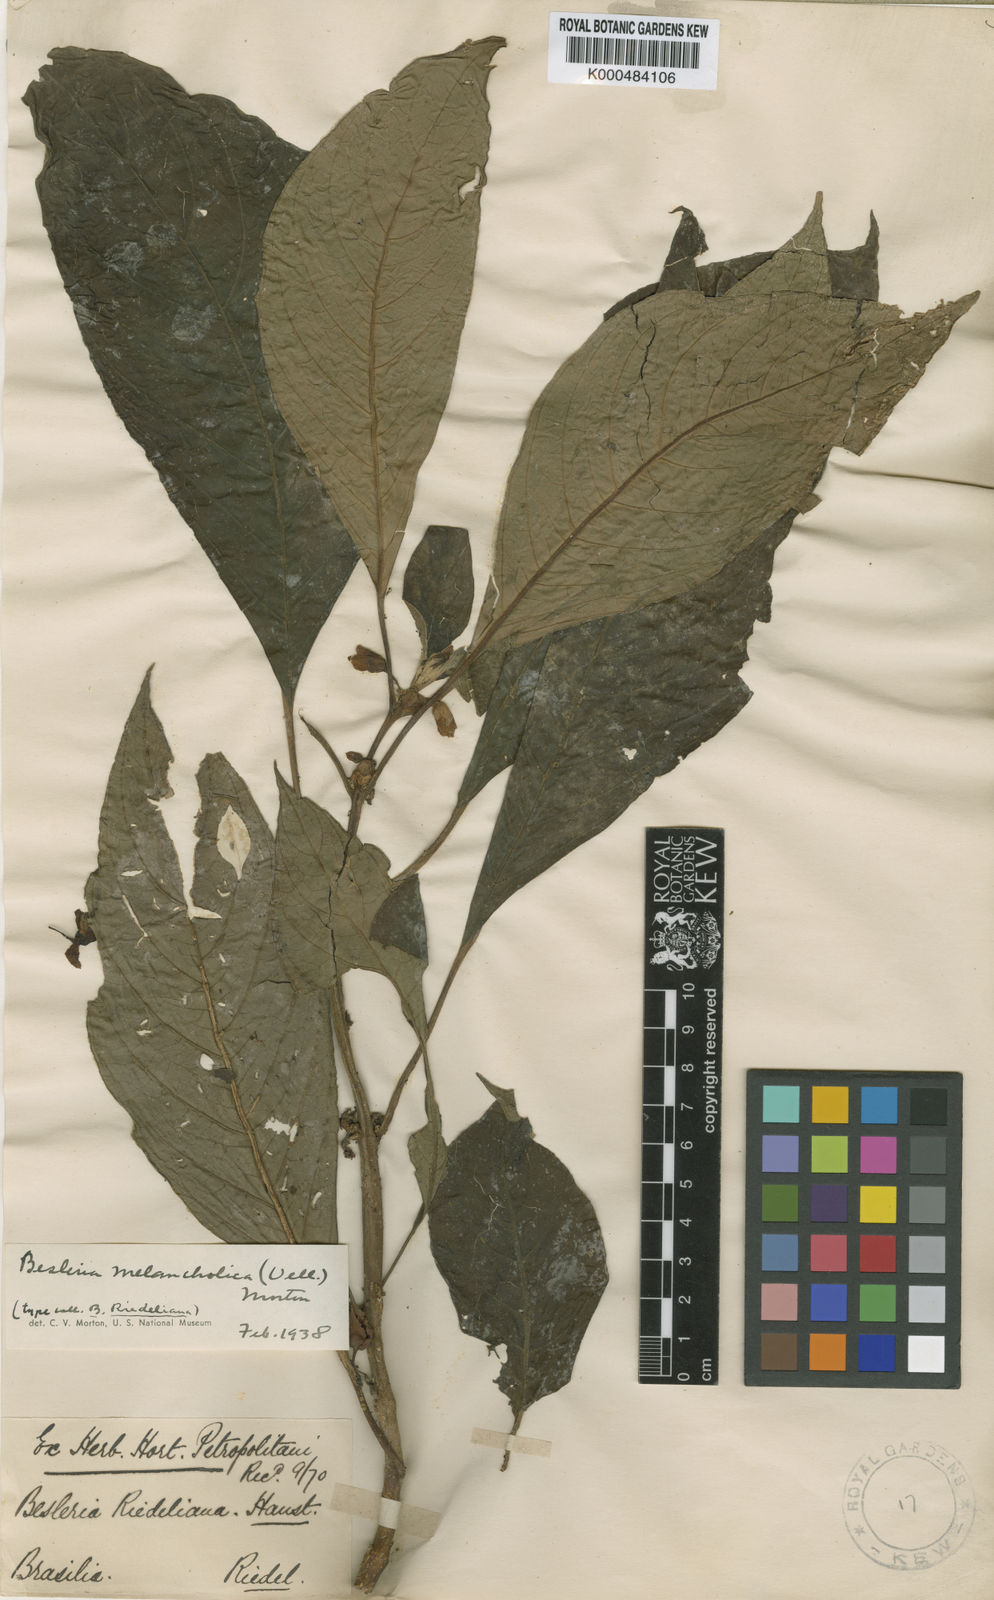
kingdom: Plantae
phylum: Tracheophyta
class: Magnoliopsida
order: Lamiales
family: Gesneriaceae
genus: Besleria
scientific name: Besleria melancholica
